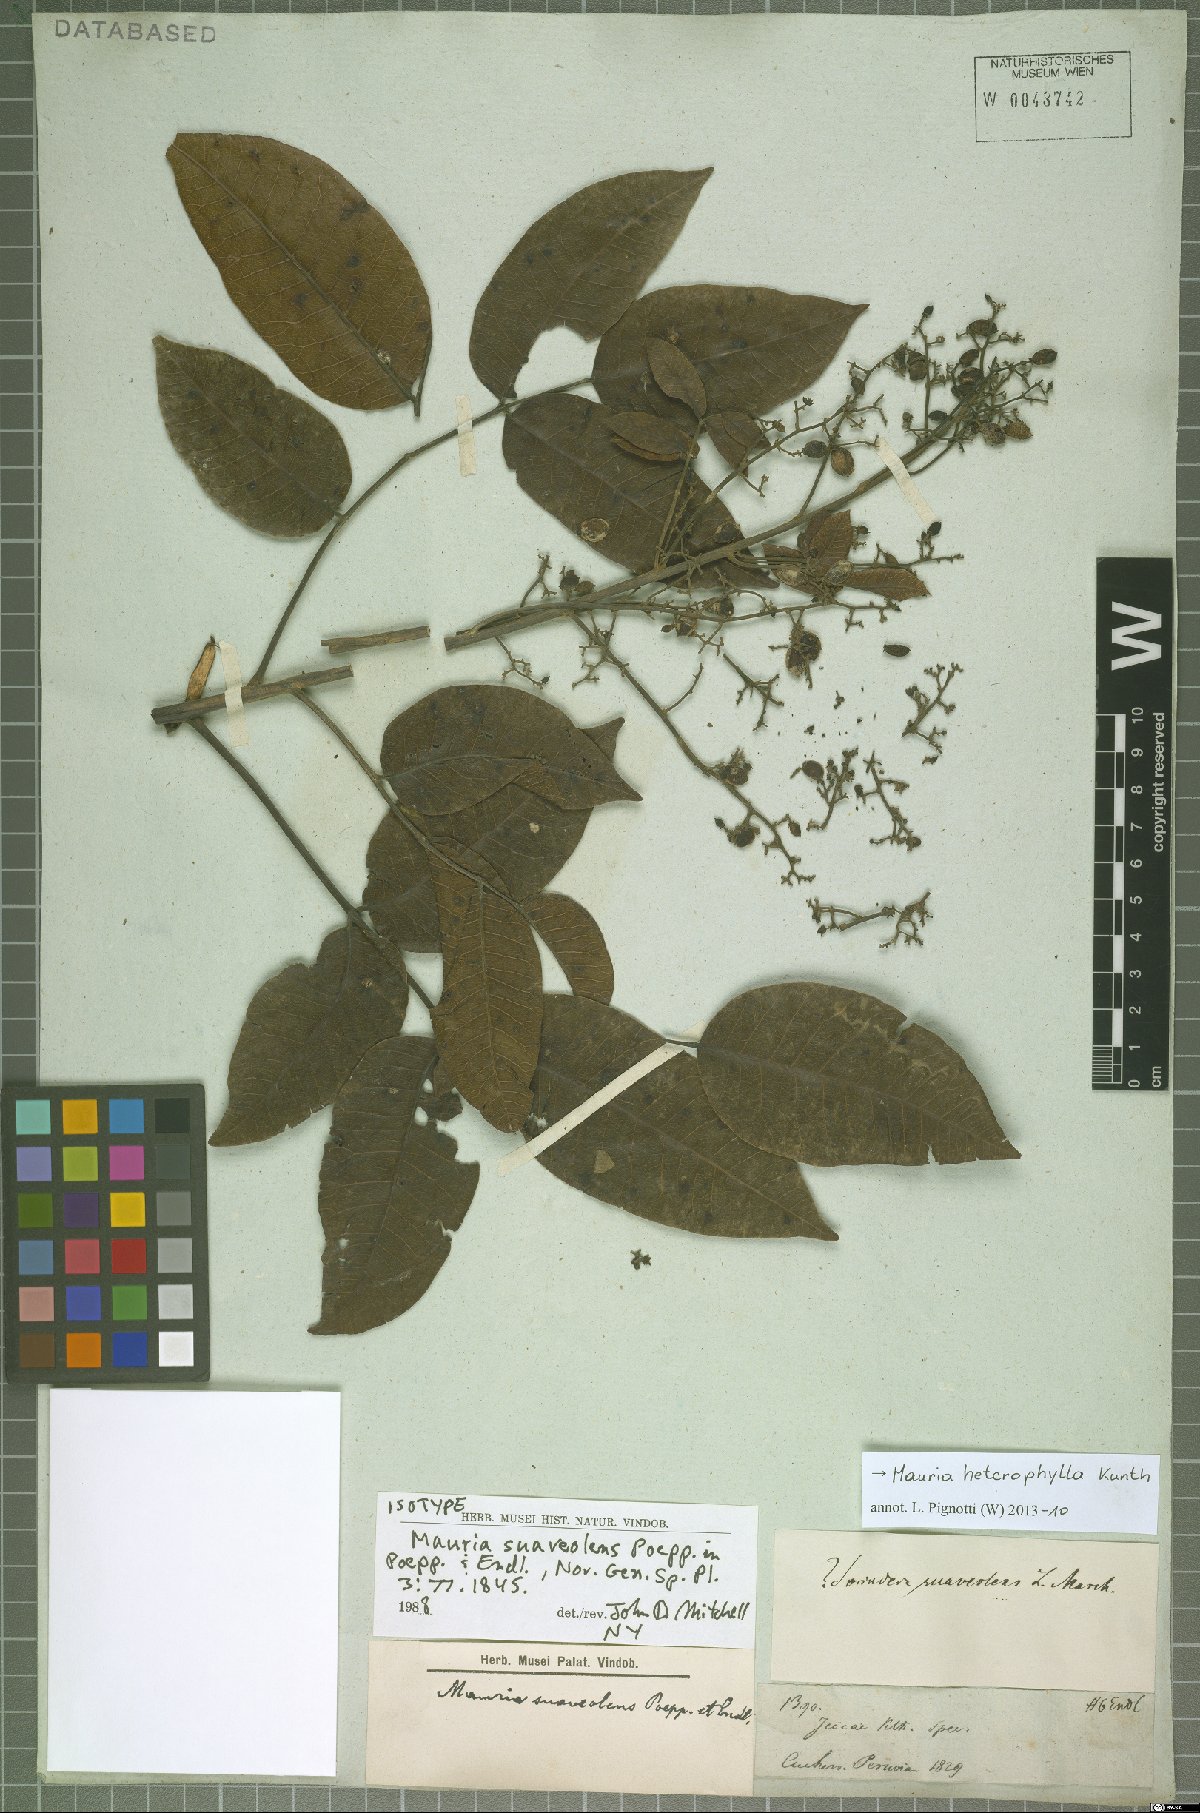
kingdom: Plantae
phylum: Tracheophyta
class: Magnoliopsida
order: Sapindales
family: Anacardiaceae
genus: Mauria
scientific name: Mauria heterophylla
